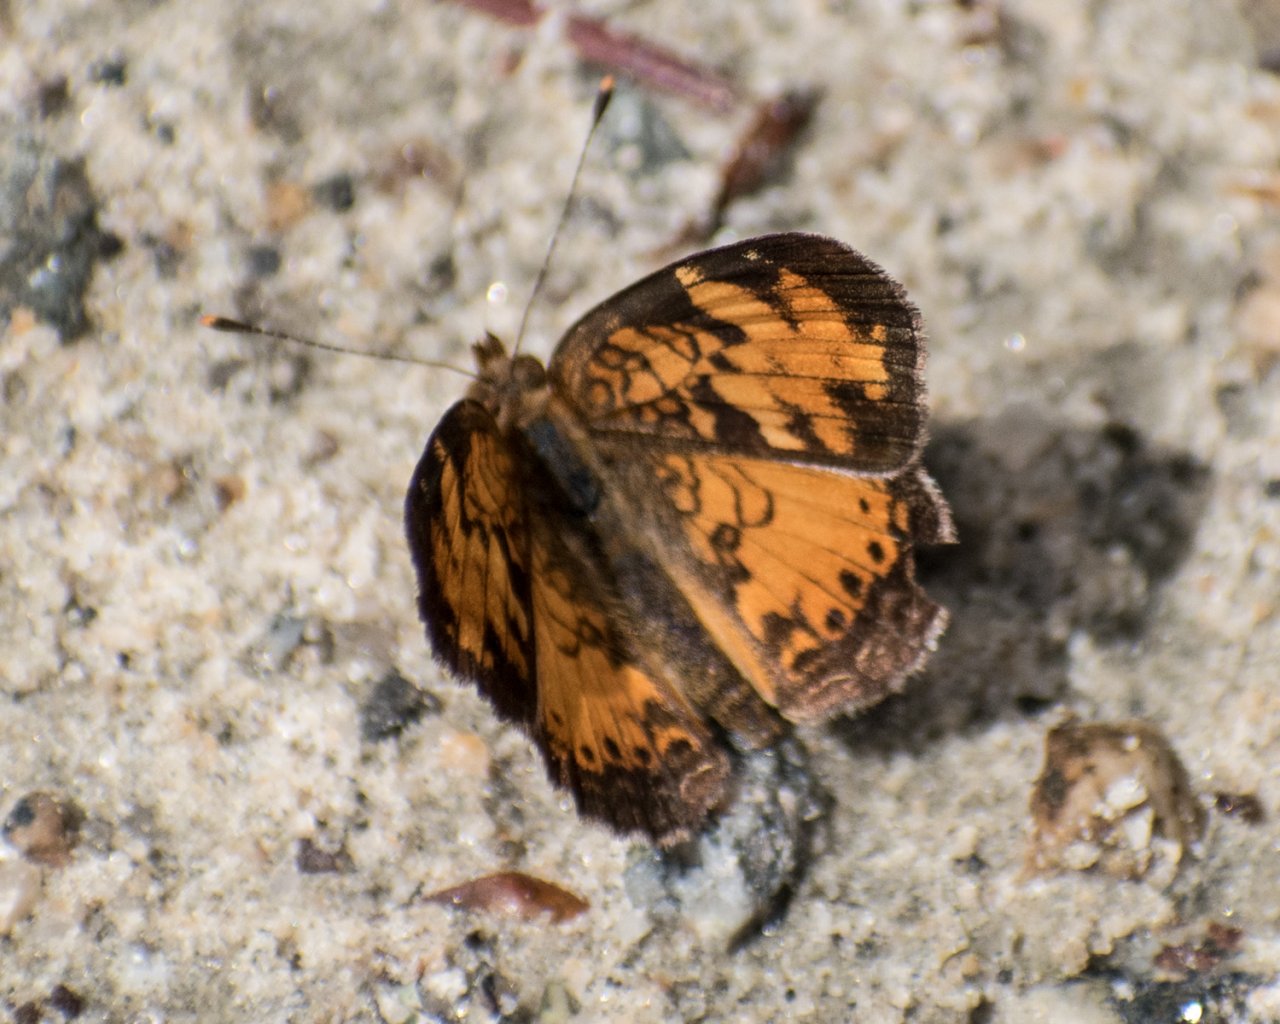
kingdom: Animalia
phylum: Arthropoda
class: Insecta
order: Lepidoptera
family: Nymphalidae
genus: Phyciodes
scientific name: Phyciodes tharos
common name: Northern Crescent
